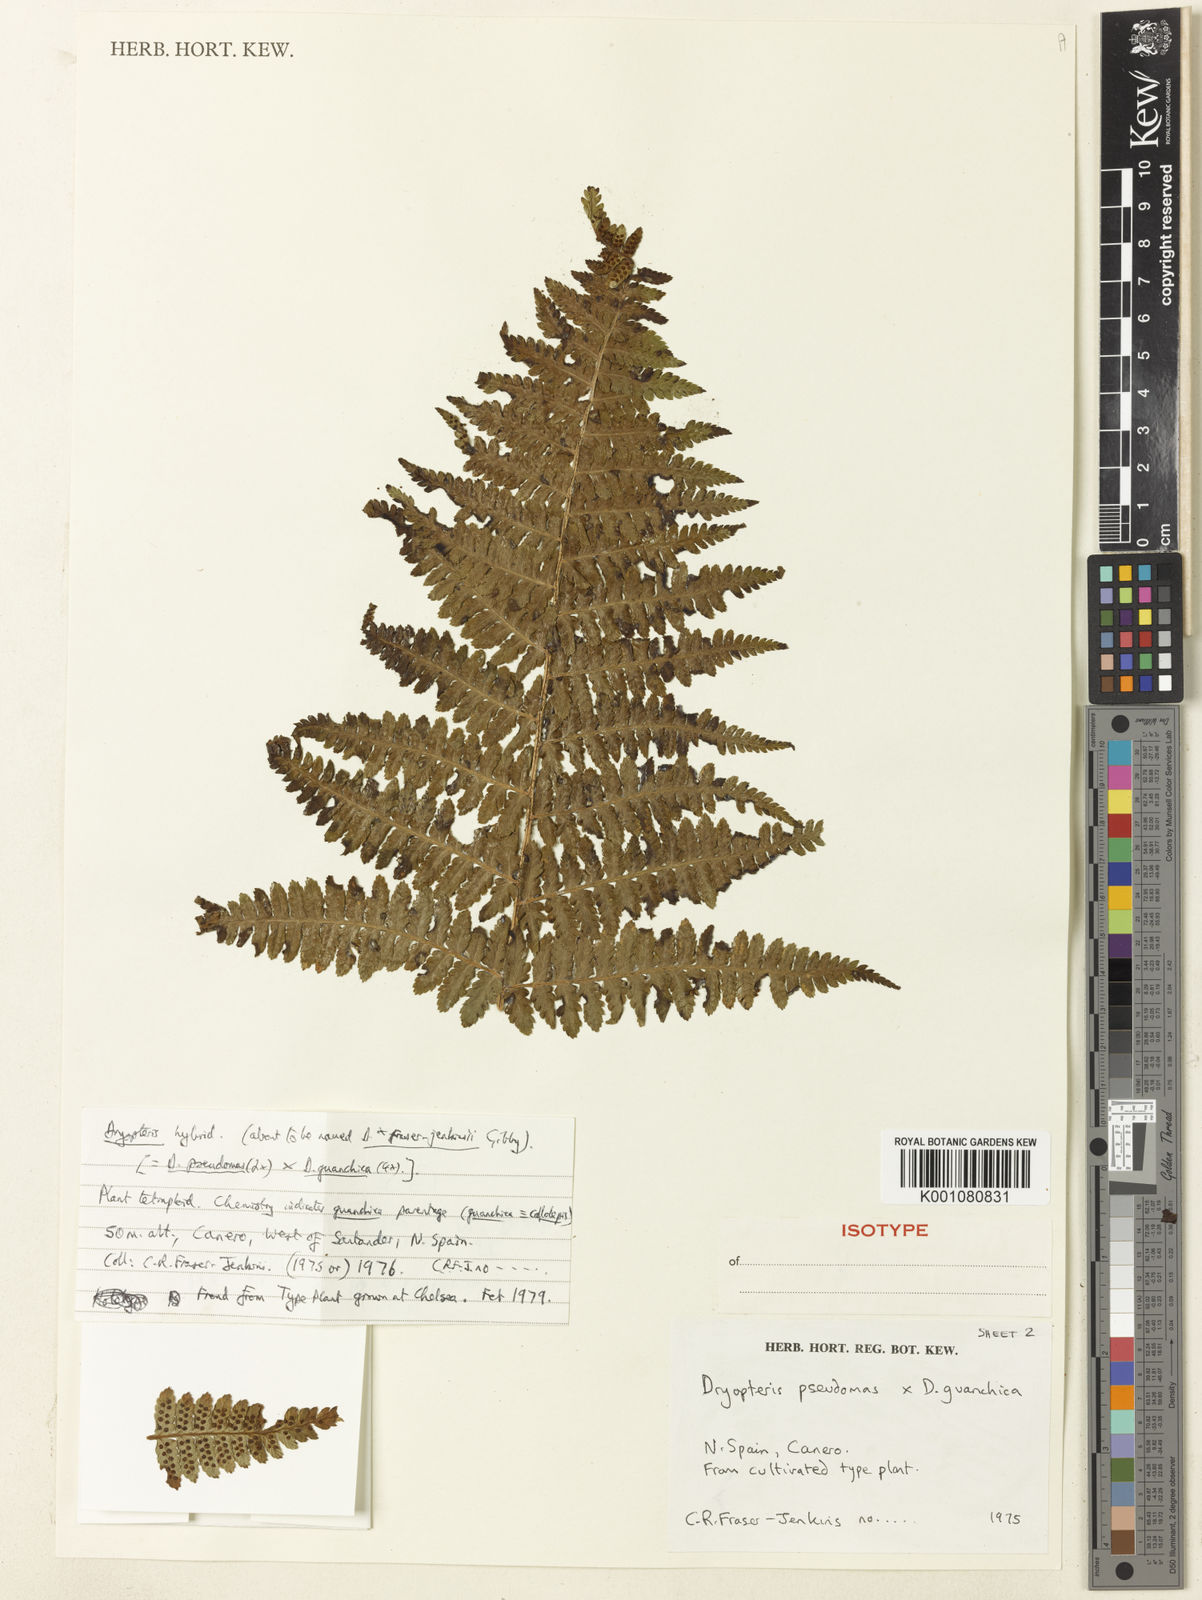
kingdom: Plantae
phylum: Tracheophyta
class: Polypodiopsida
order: Polypodiales
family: Dryopteridaceae
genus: Dryopteris
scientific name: Dryopteris affinis
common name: Scaly male fern
